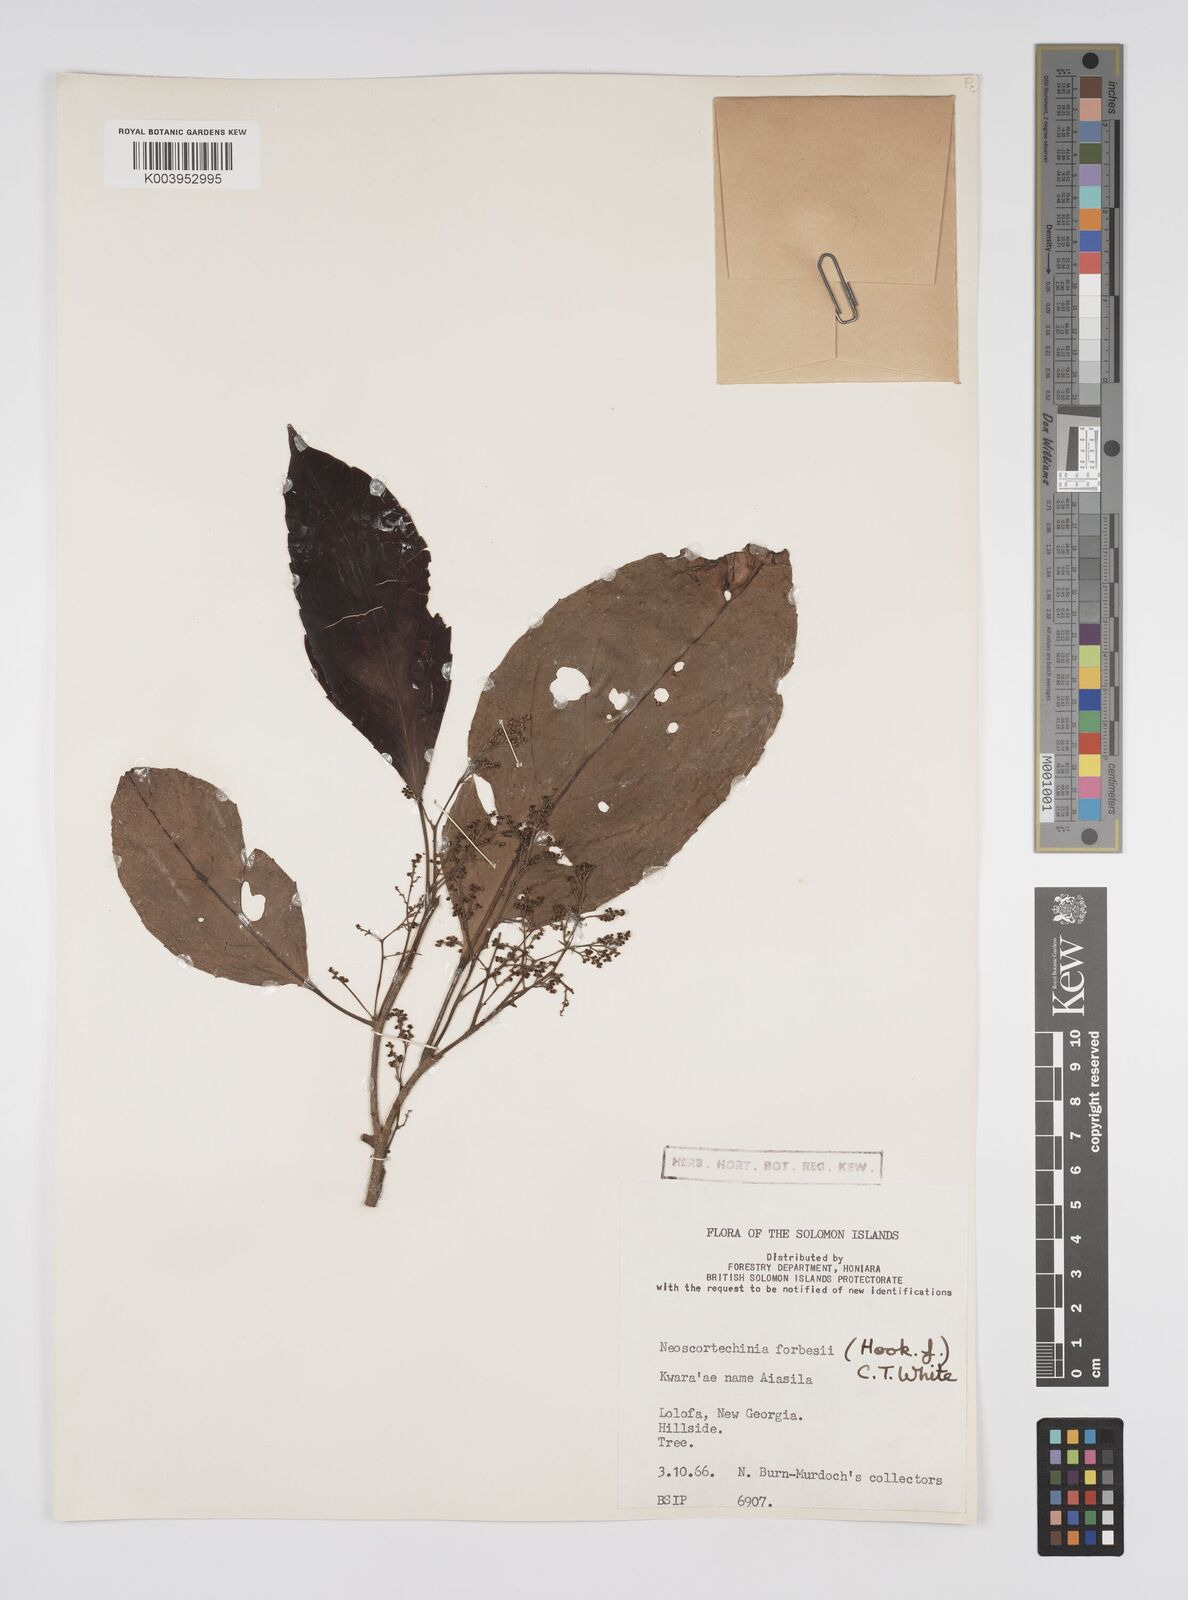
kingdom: Plantae
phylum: Tracheophyta
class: Magnoliopsida
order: Malpighiales
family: Euphorbiaceae
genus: Neoscortechinia
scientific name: Neoscortechinia forbesii
